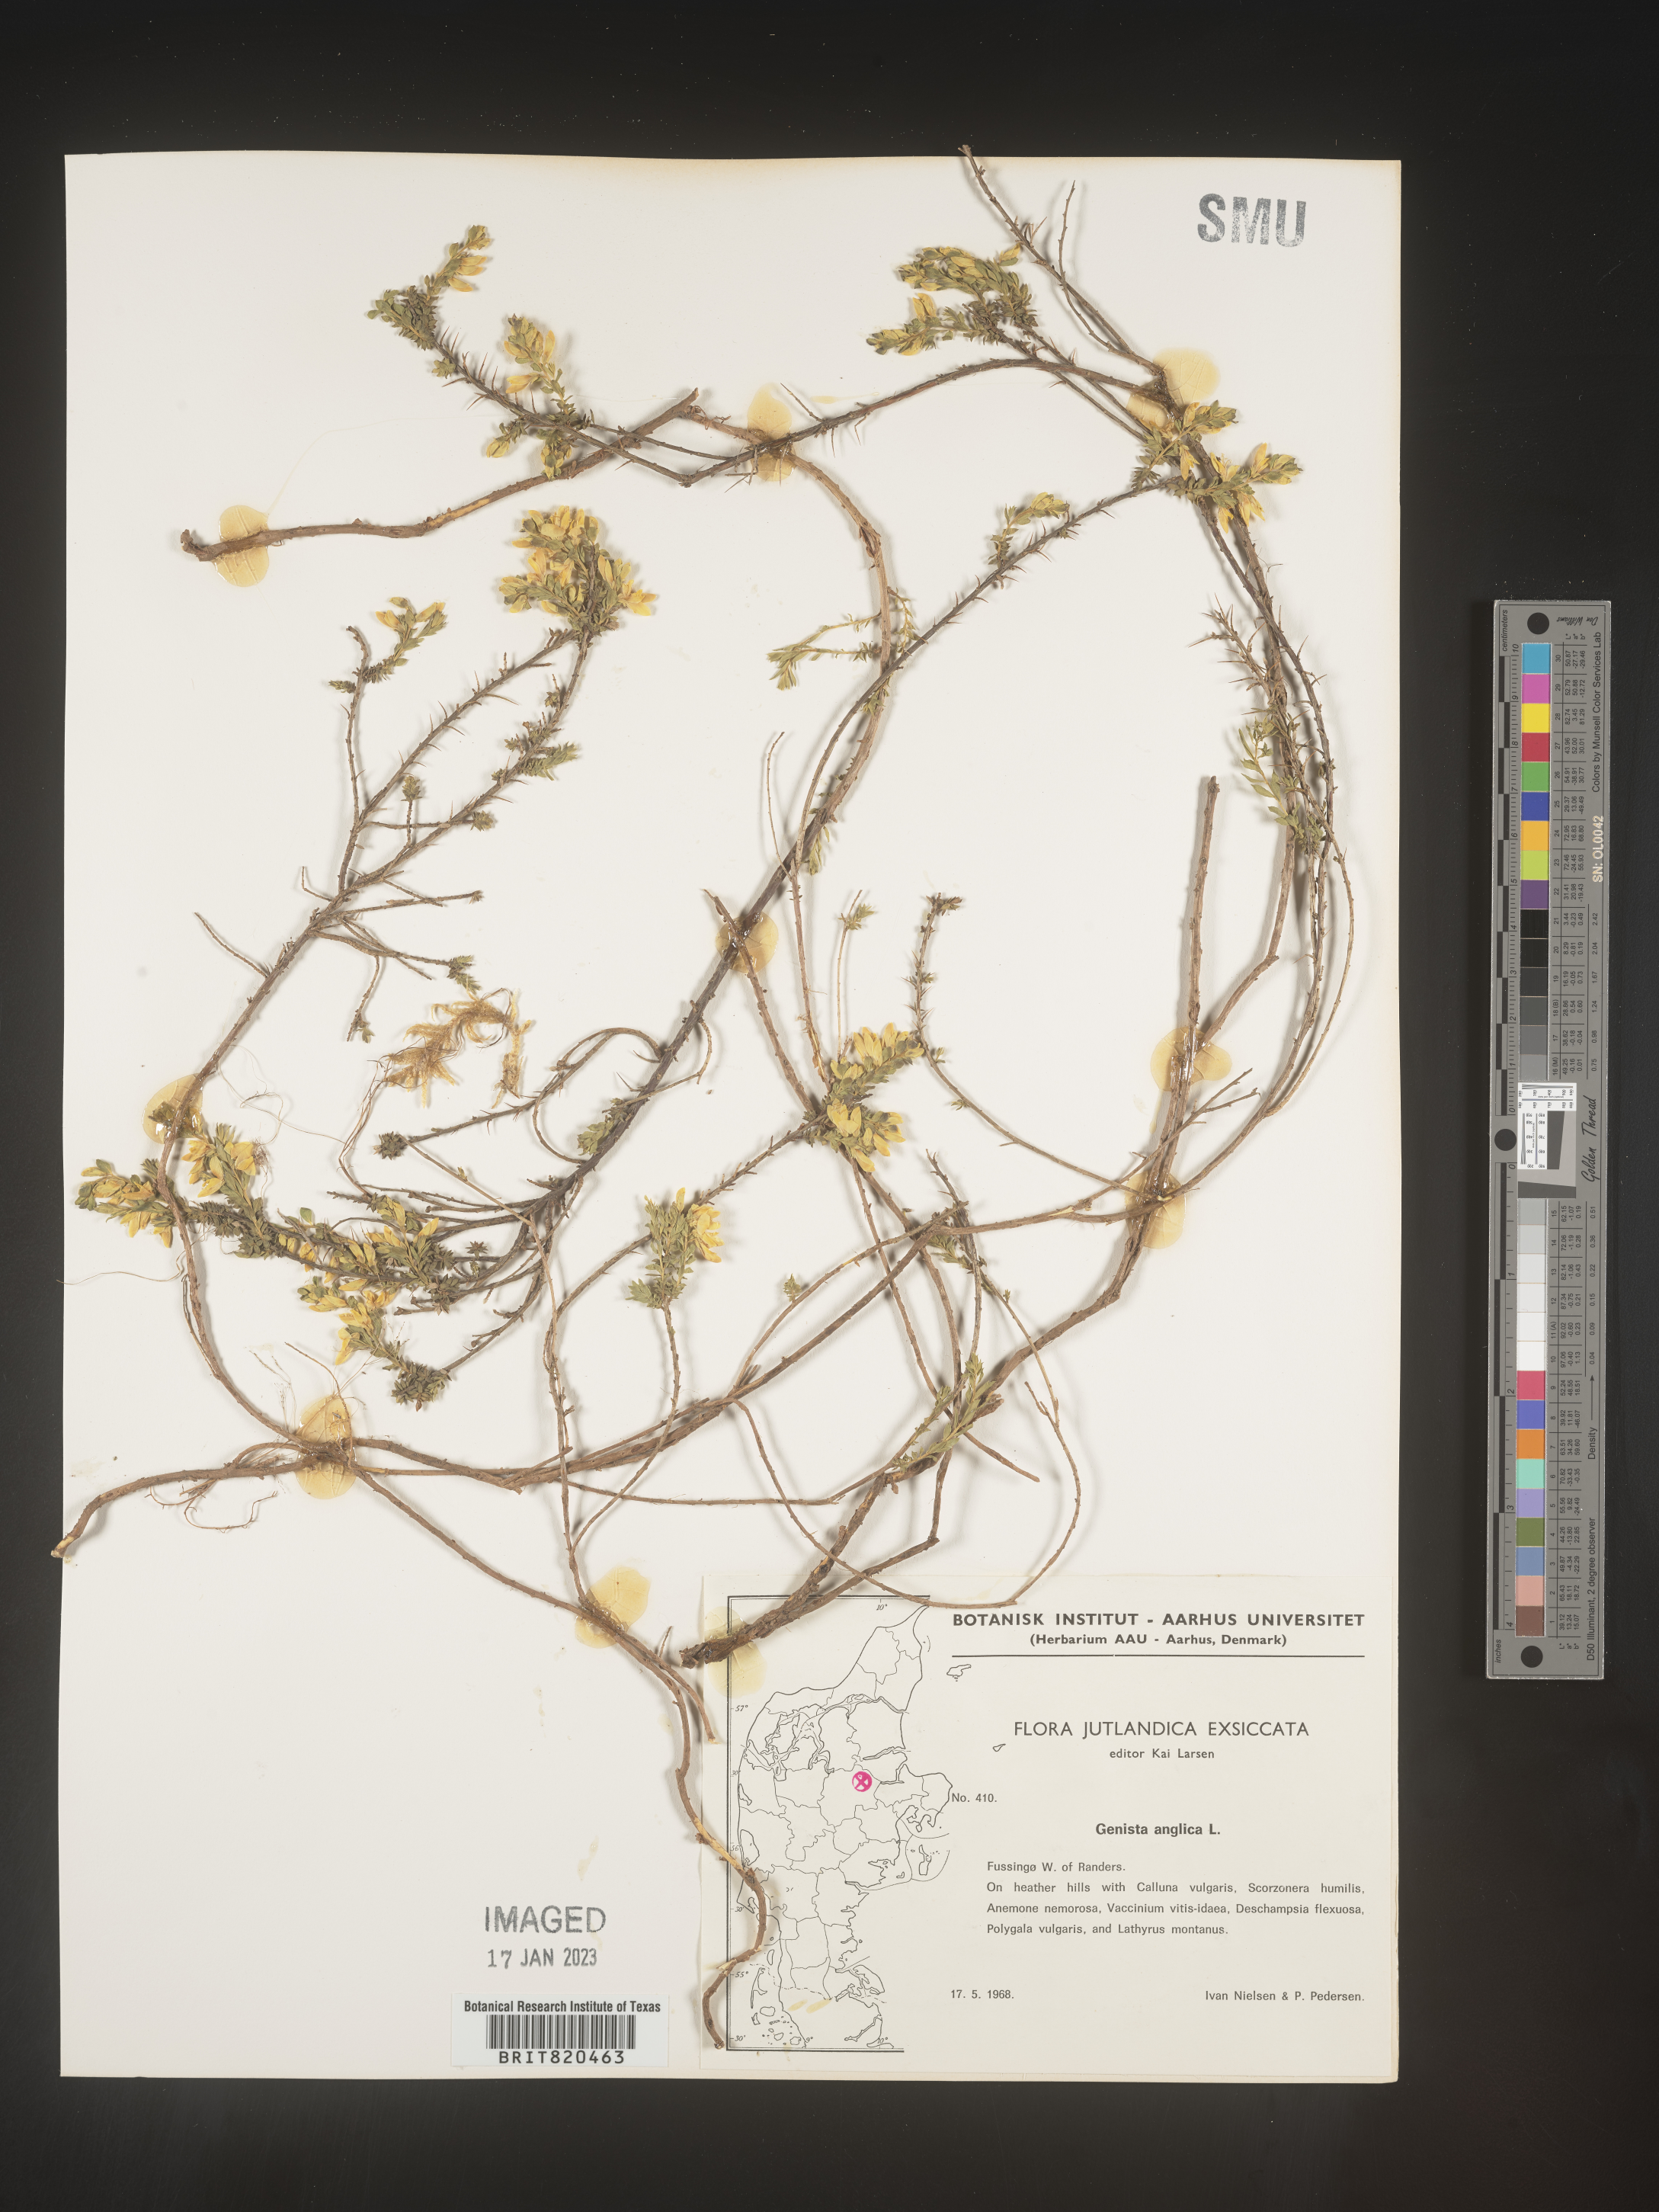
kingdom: Plantae
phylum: Tracheophyta
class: Magnoliopsida
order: Fabales
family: Fabaceae
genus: Genista
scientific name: Genista
